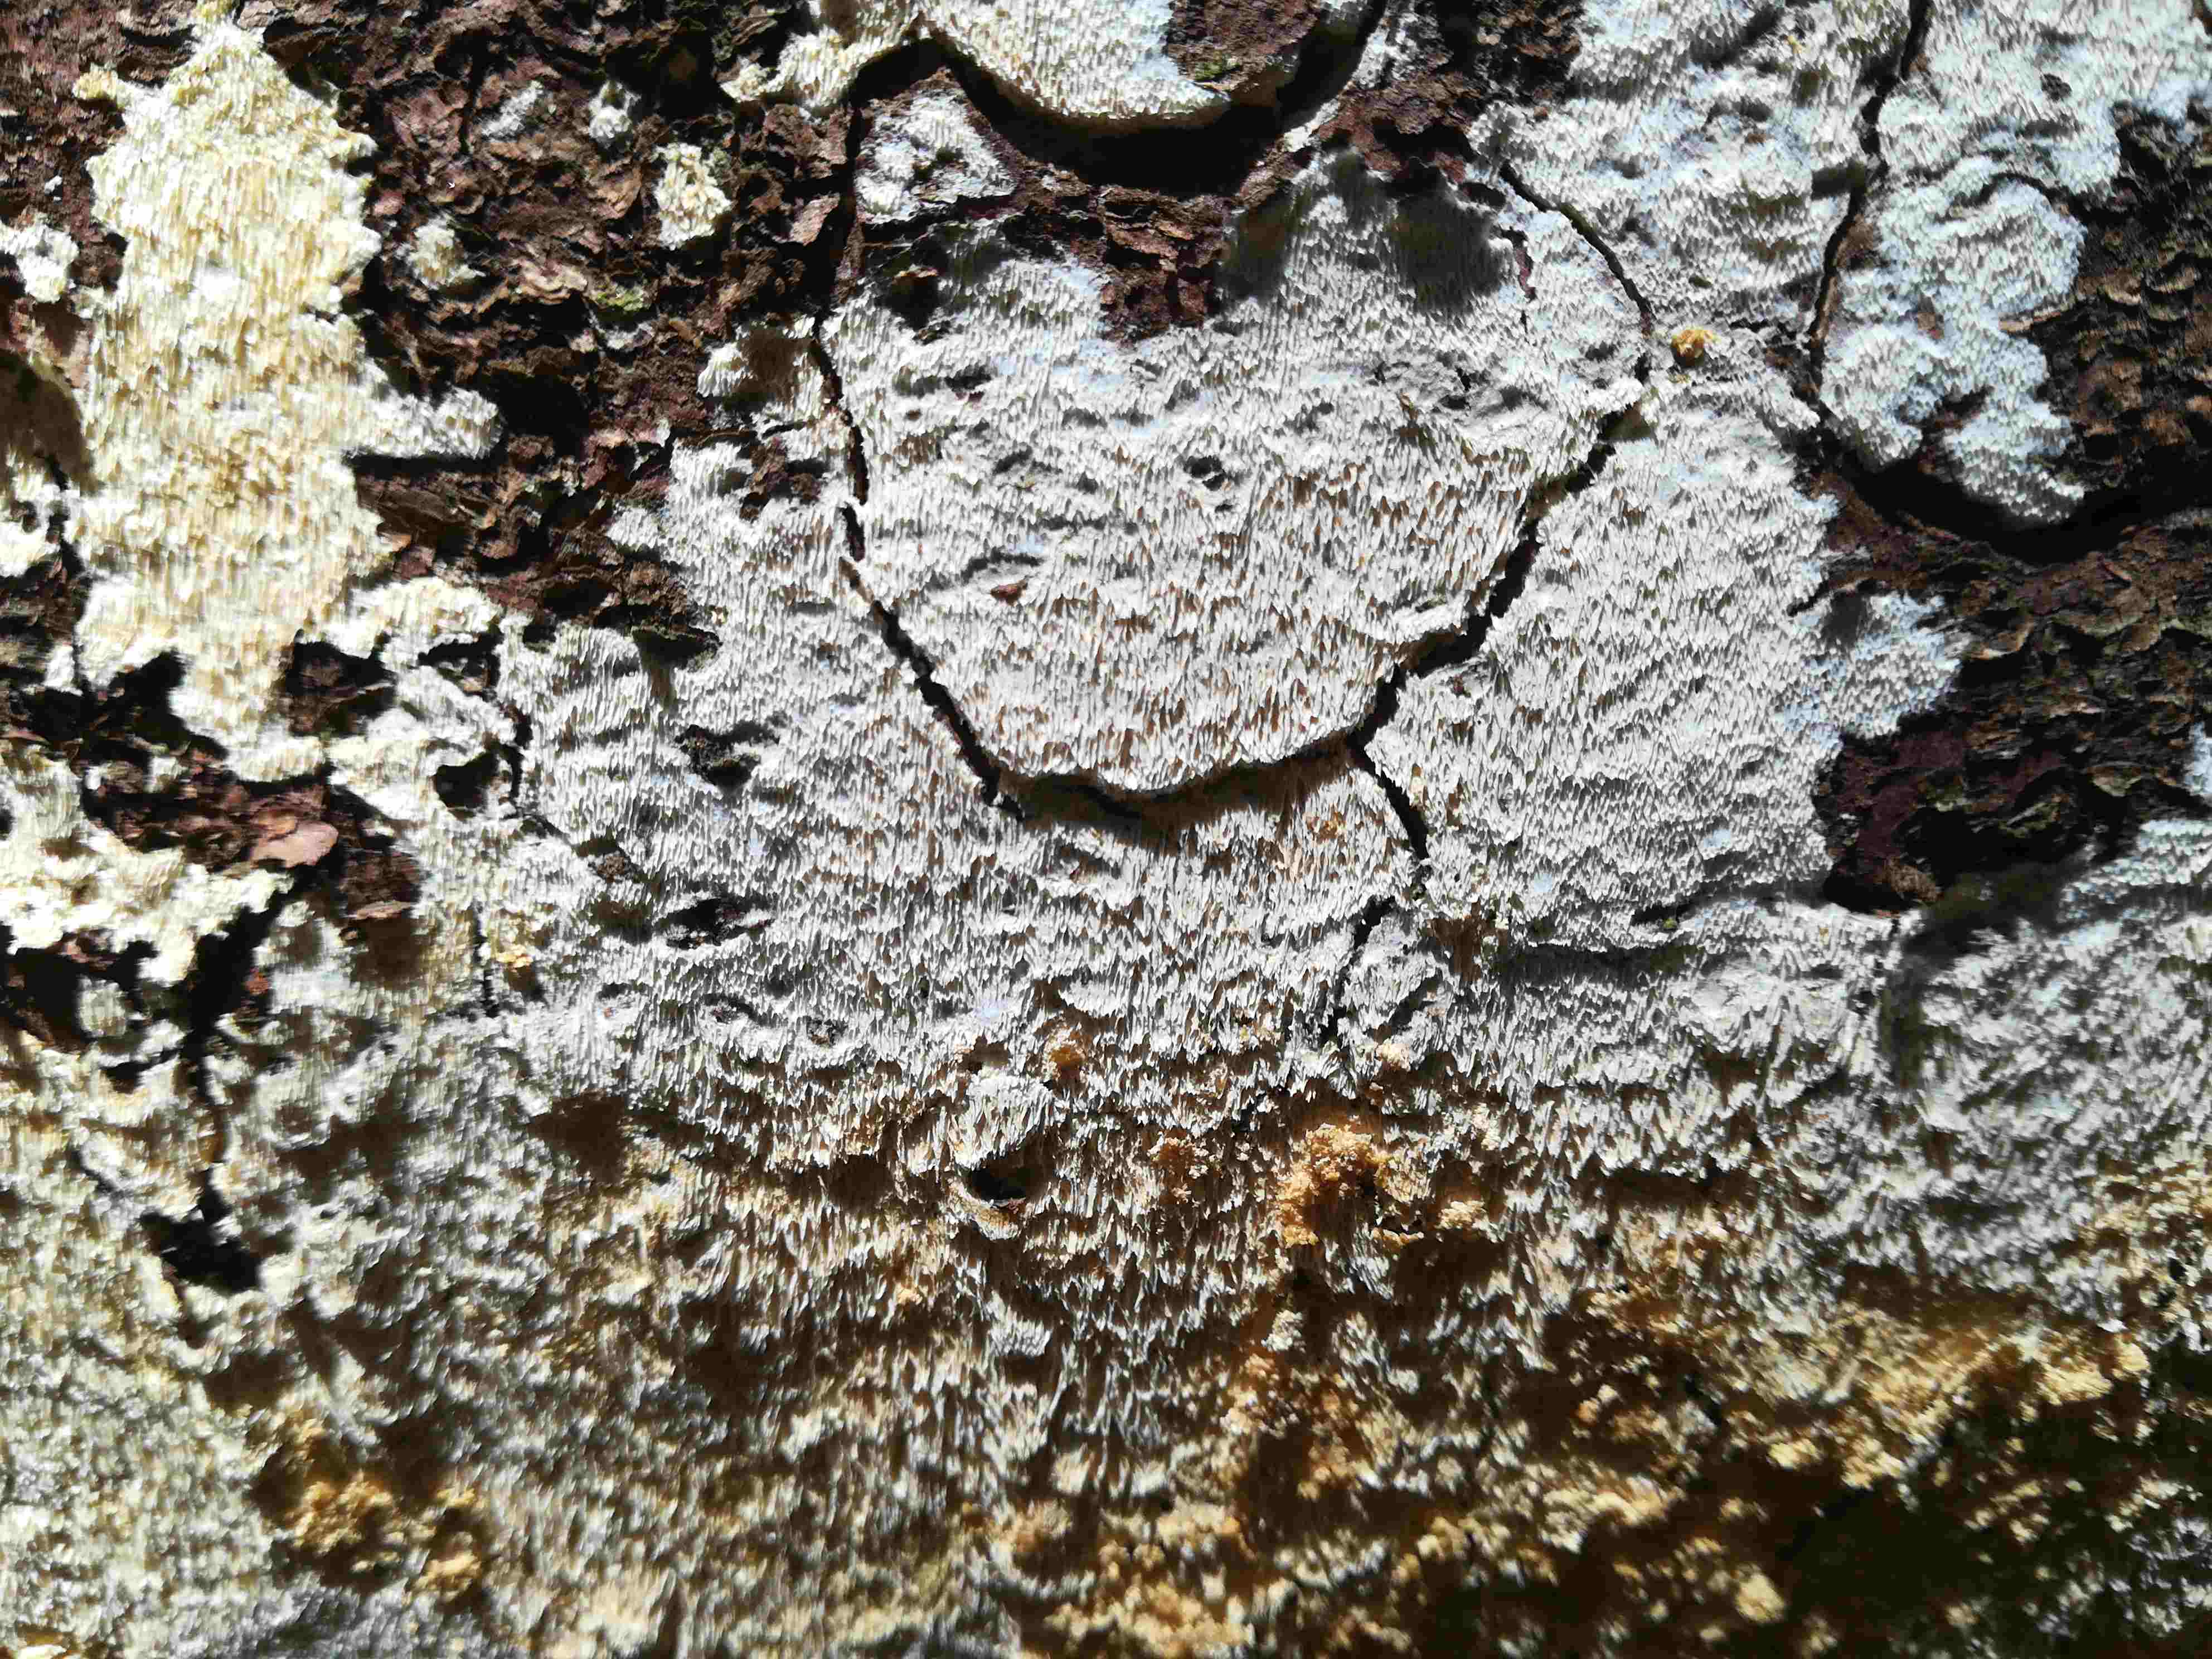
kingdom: Fungi
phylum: Basidiomycota
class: Agaricomycetes
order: Hymenochaetales
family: Schizoporaceae
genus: Xylodon
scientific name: Xylodon
